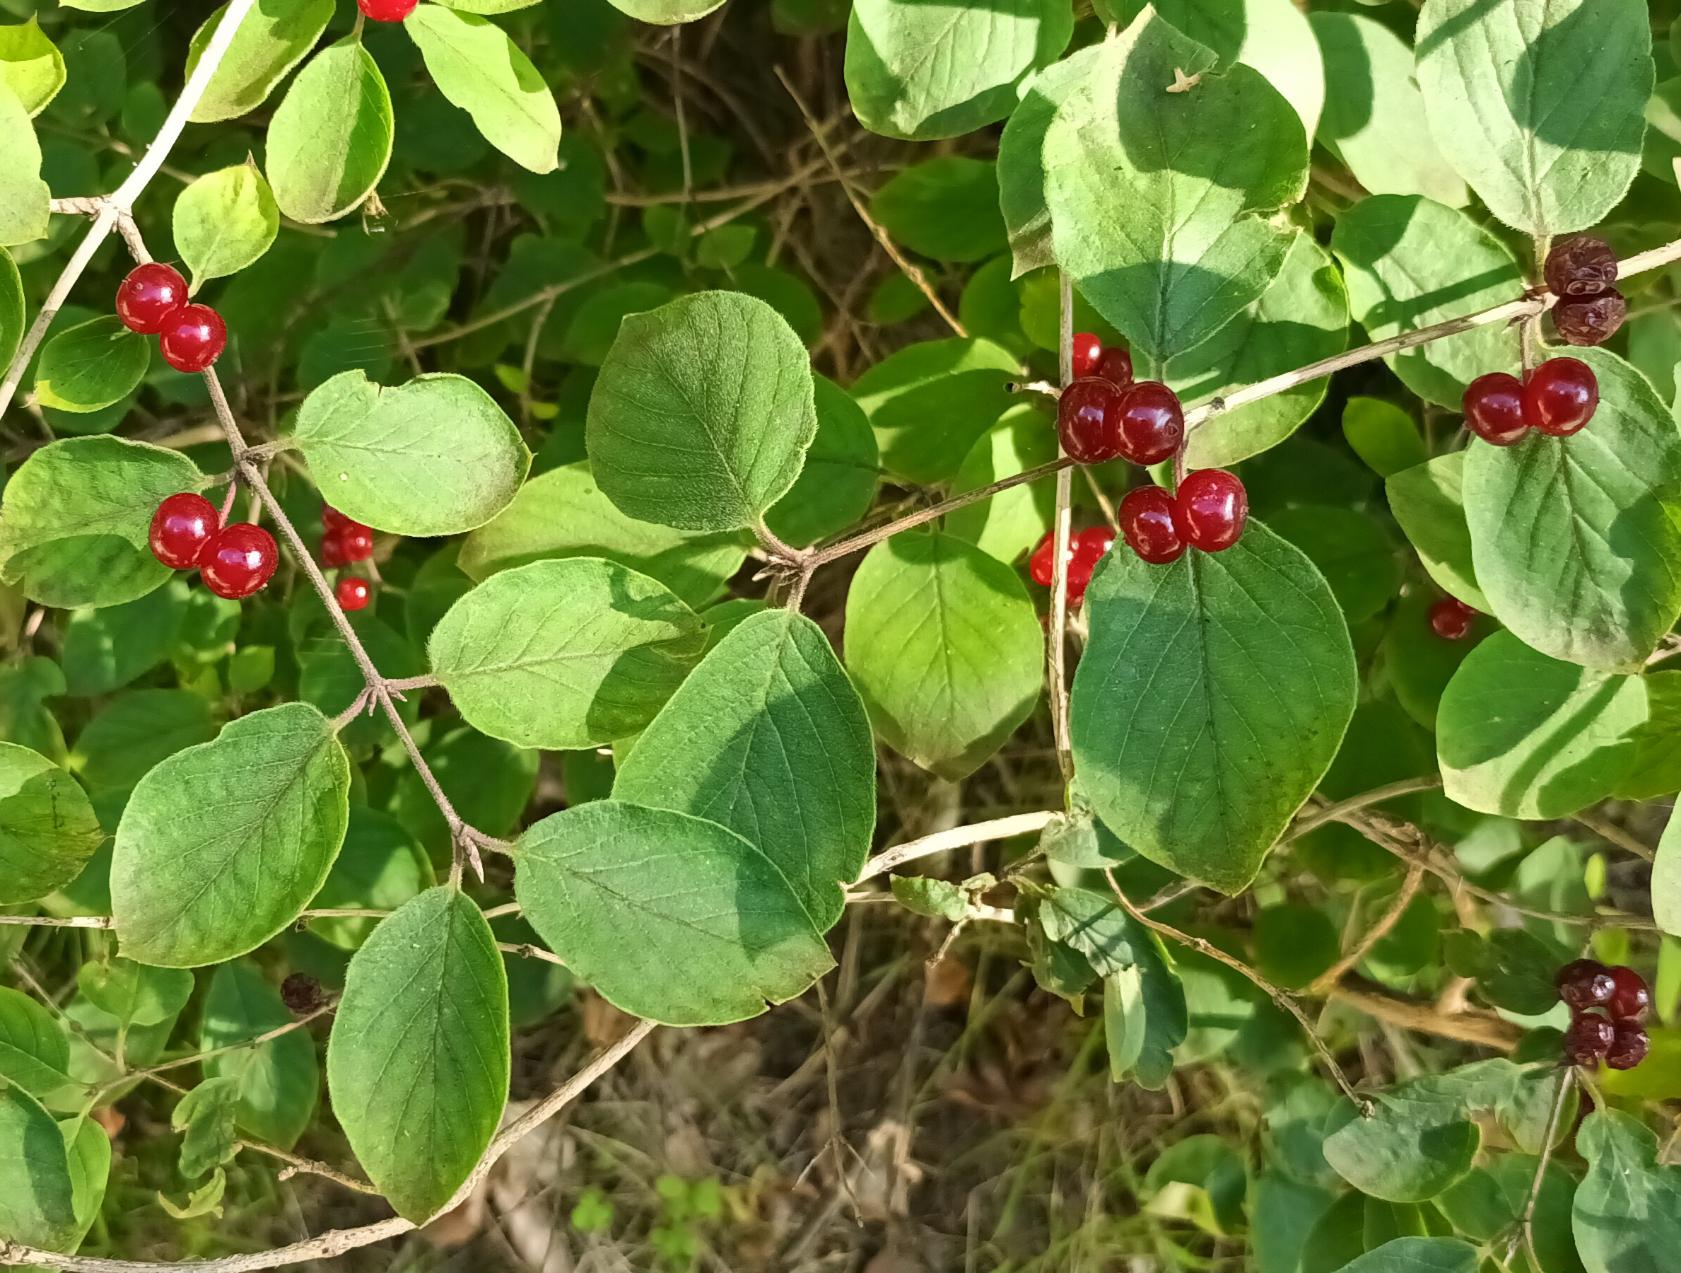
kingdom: Plantae
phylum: Tracheophyta
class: Magnoliopsida
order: Dipsacales
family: Caprifoliaceae
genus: Lonicera
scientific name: Lonicera xylosteum
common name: Dunet gedeblad
